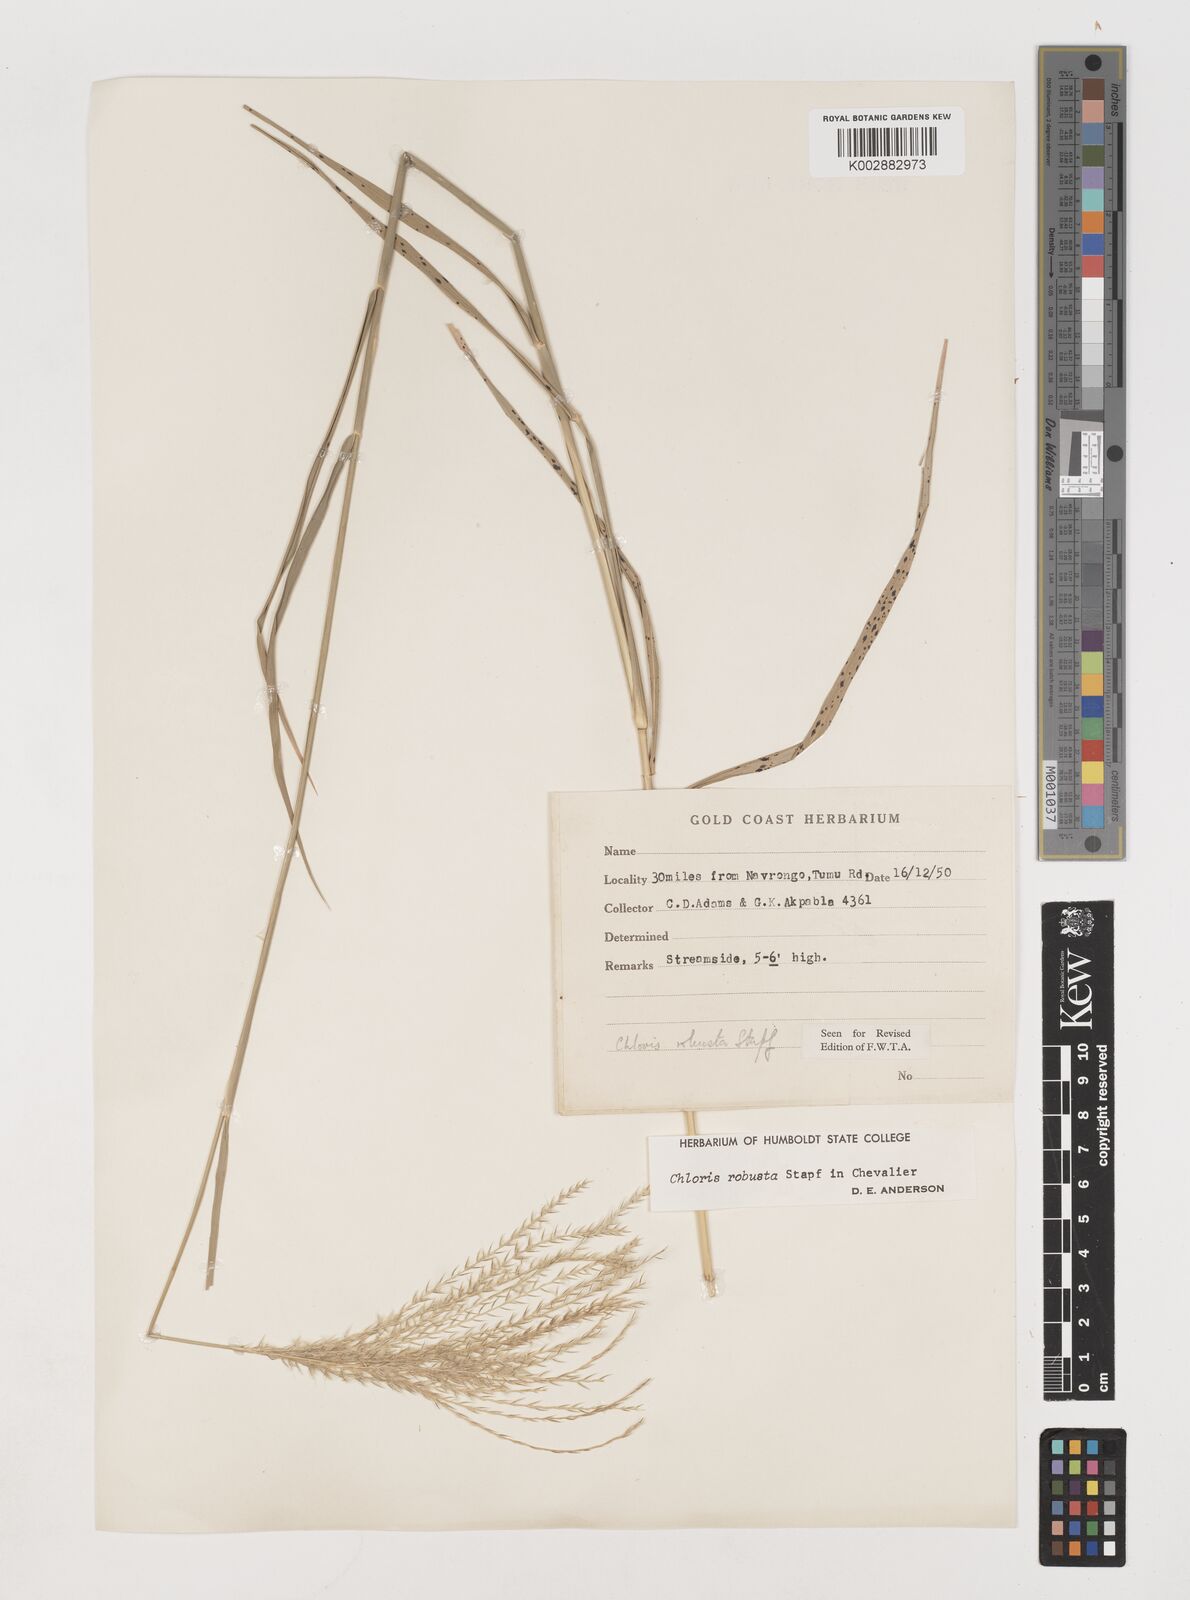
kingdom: Plantae
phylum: Tracheophyta
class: Liliopsida
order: Poales
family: Poaceae
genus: Chloris
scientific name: Chloris robusta
